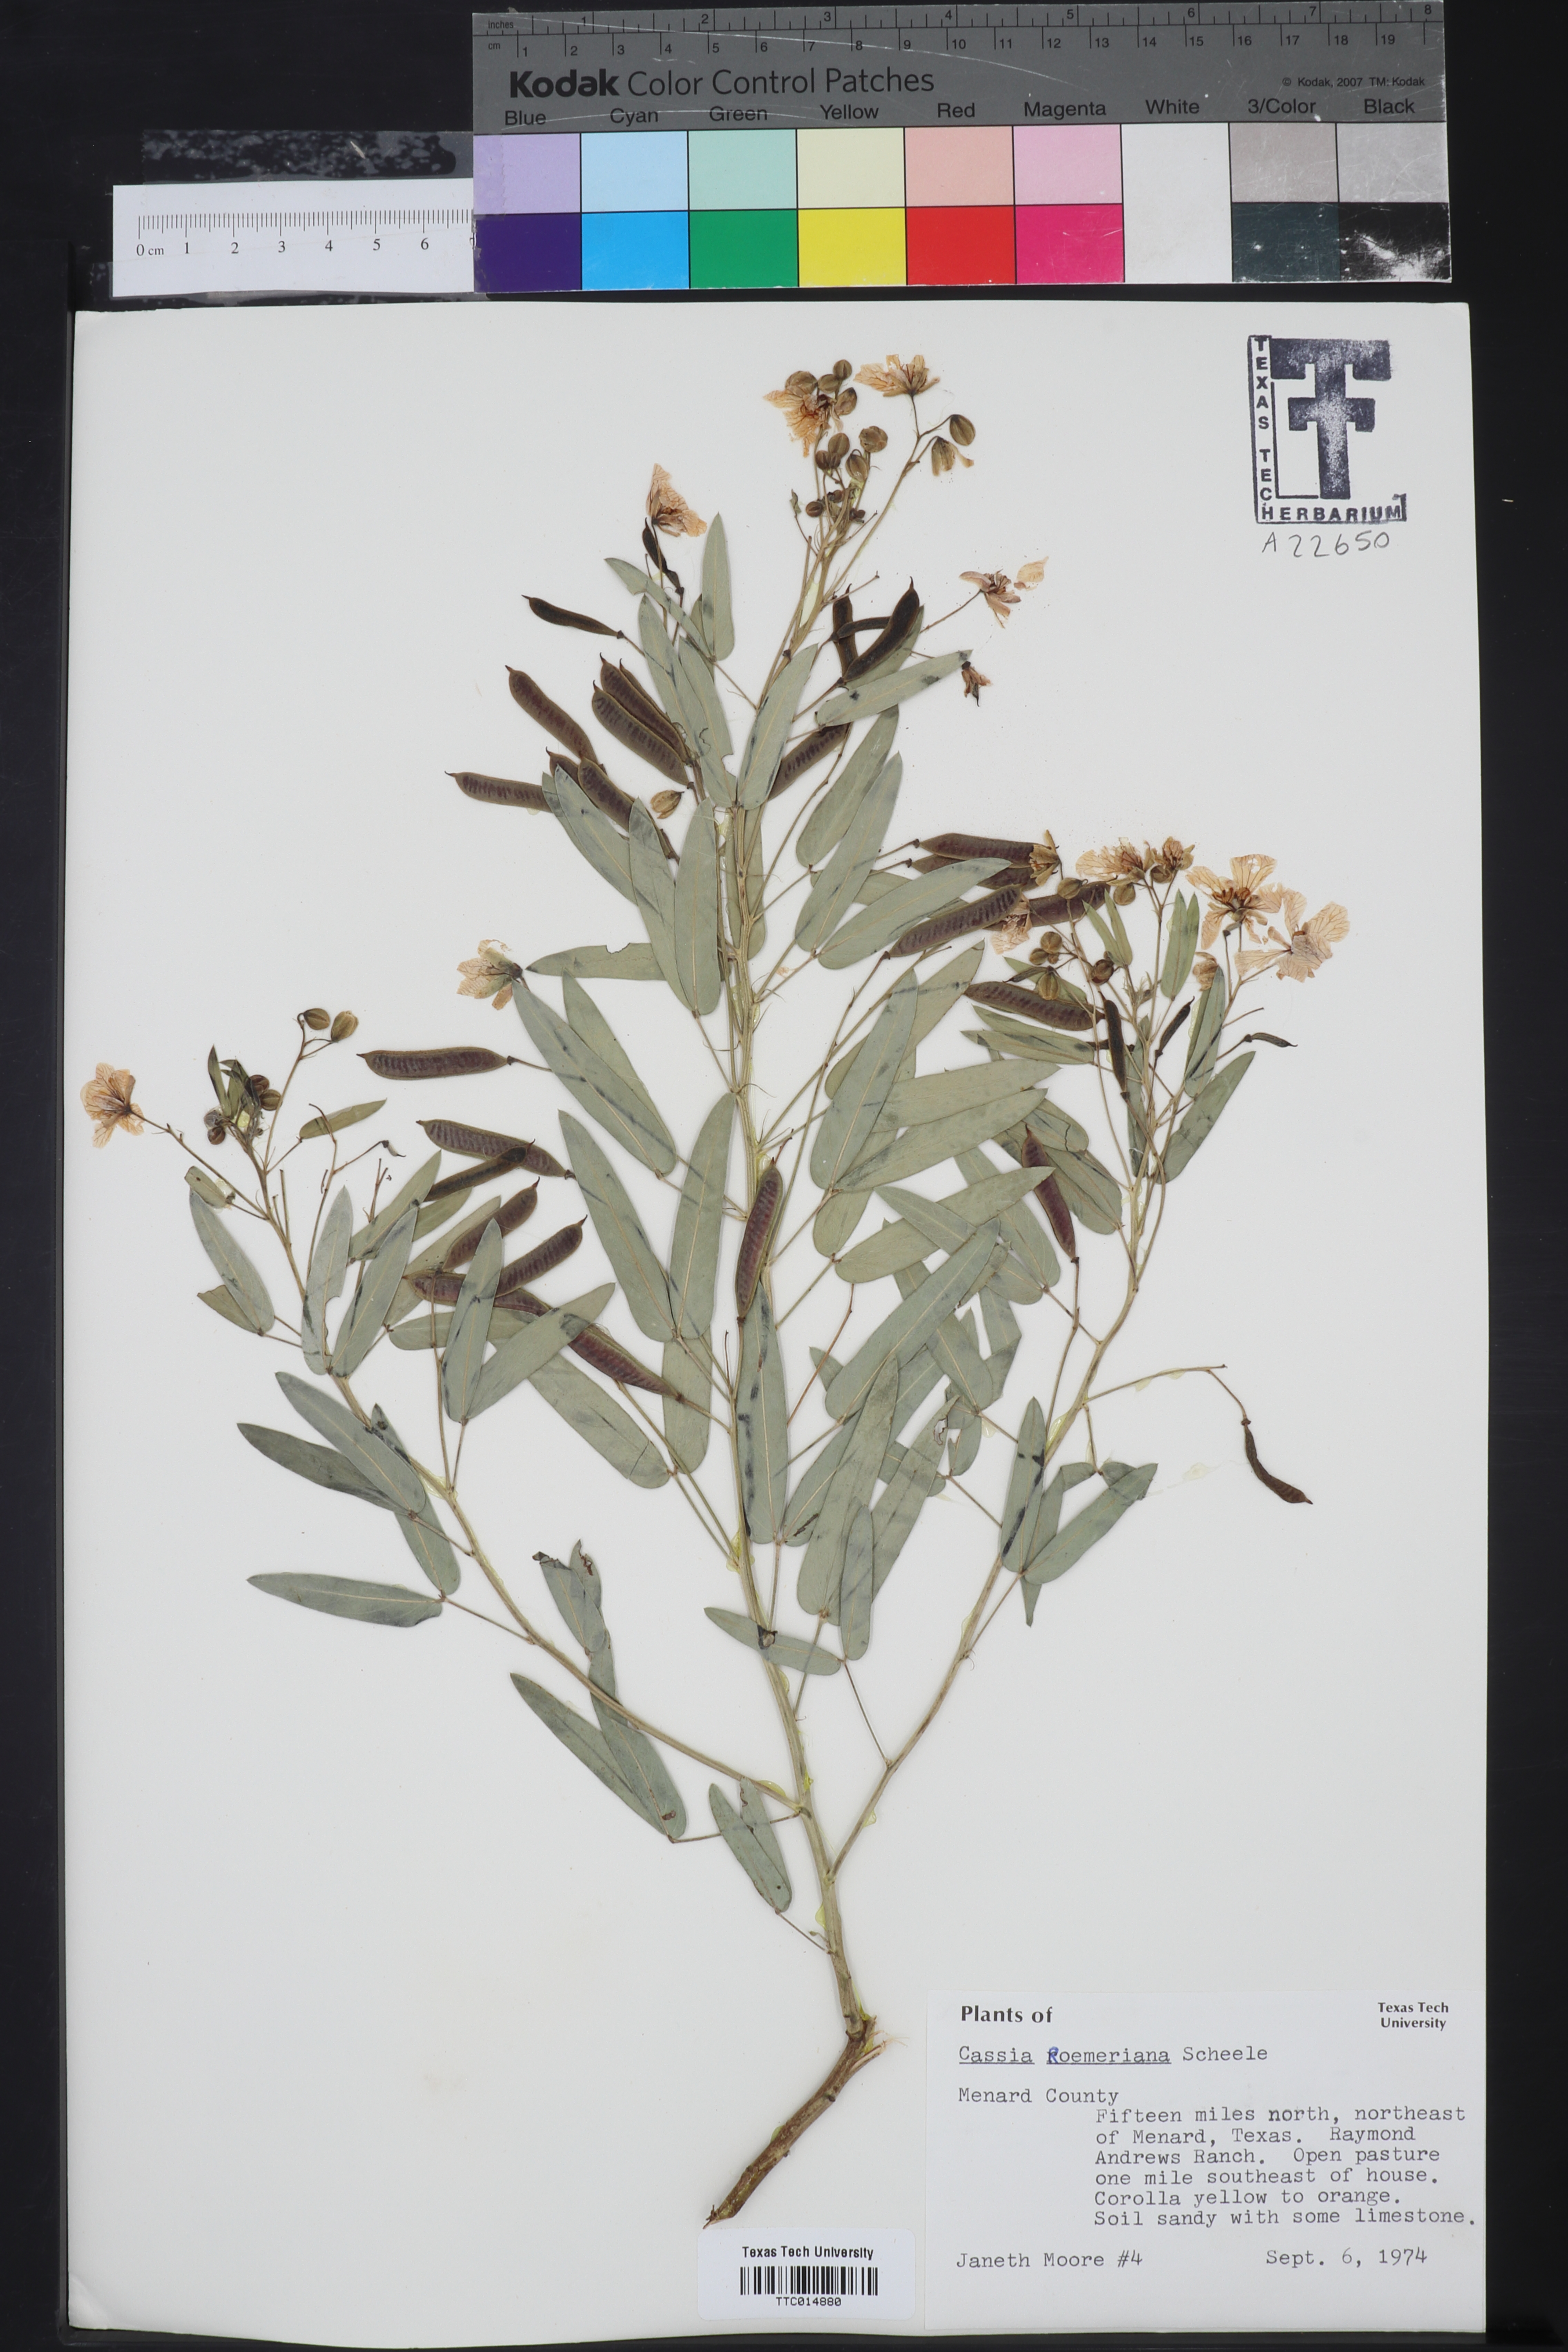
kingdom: Plantae
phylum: Tracheophyta
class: Magnoliopsida
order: Fabales
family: Fabaceae
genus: Senna
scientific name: Senna roemeriana
